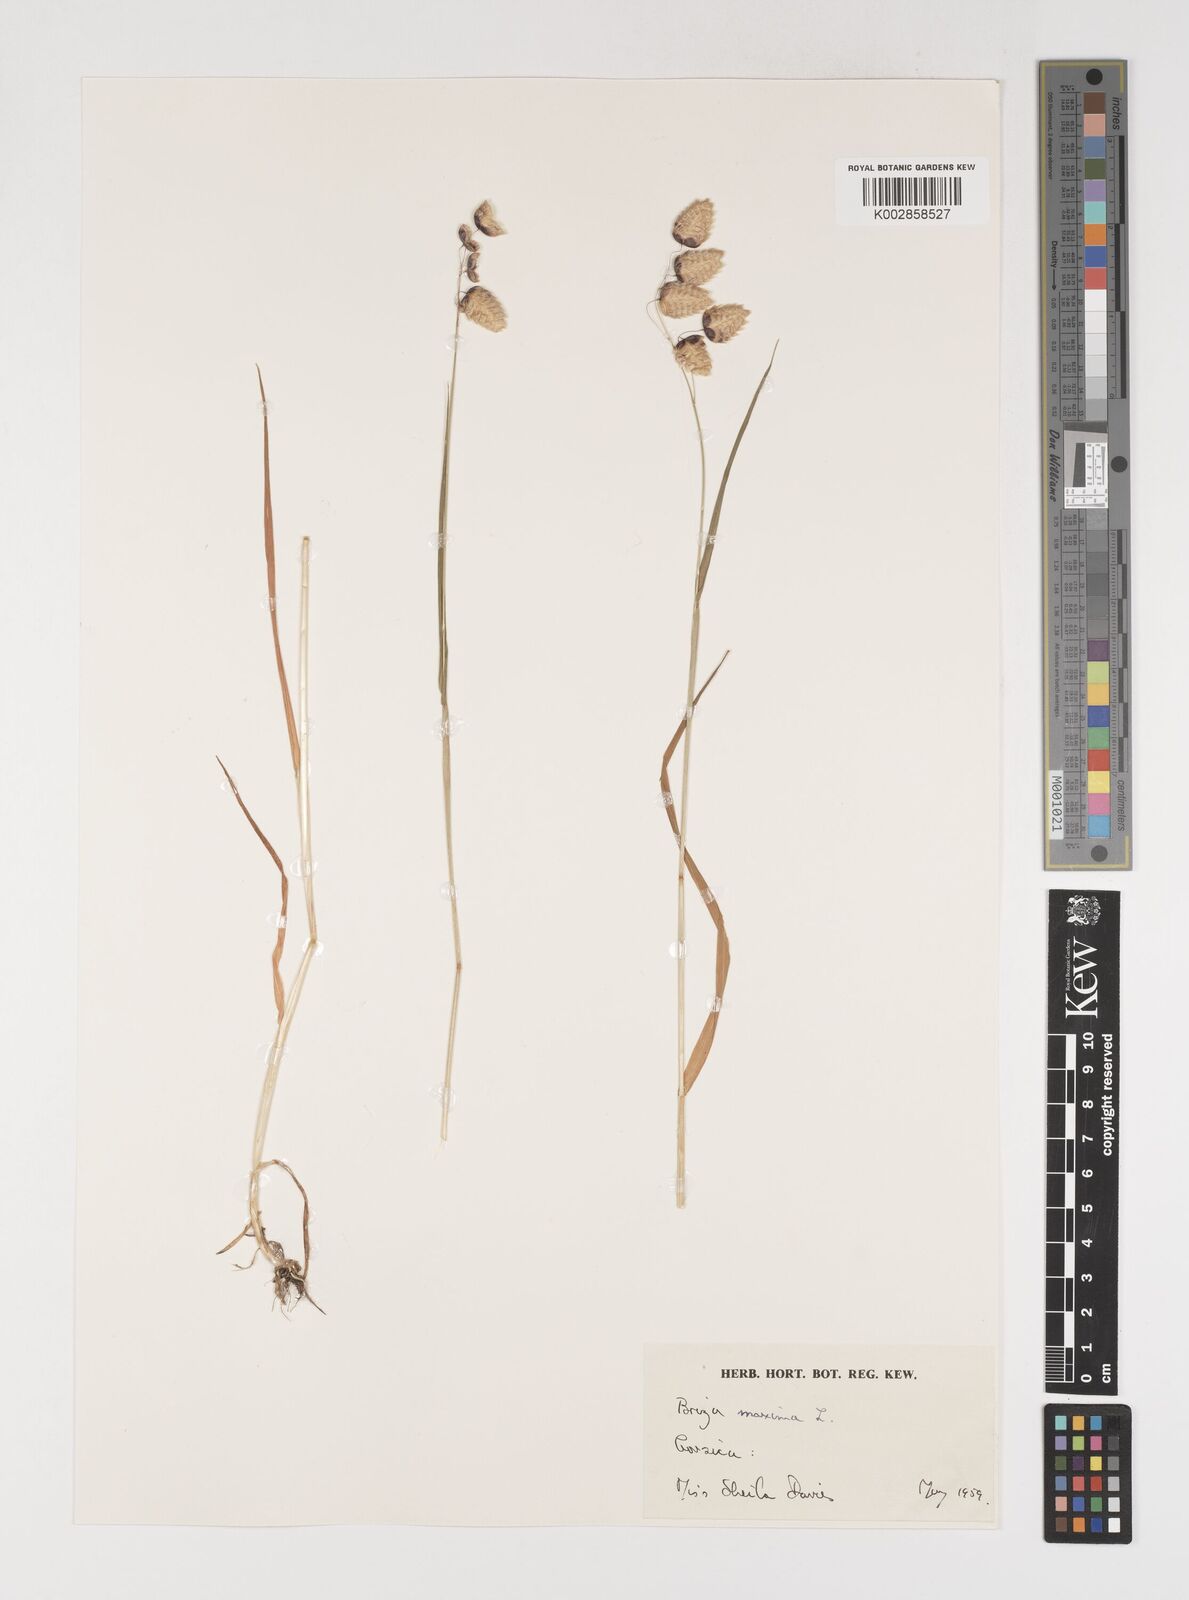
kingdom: Plantae
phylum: Tracheophyta
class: Liliopsida
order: Poales
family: Poaceae
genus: Briza
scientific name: Briza maxima
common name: Big quakinggrass
